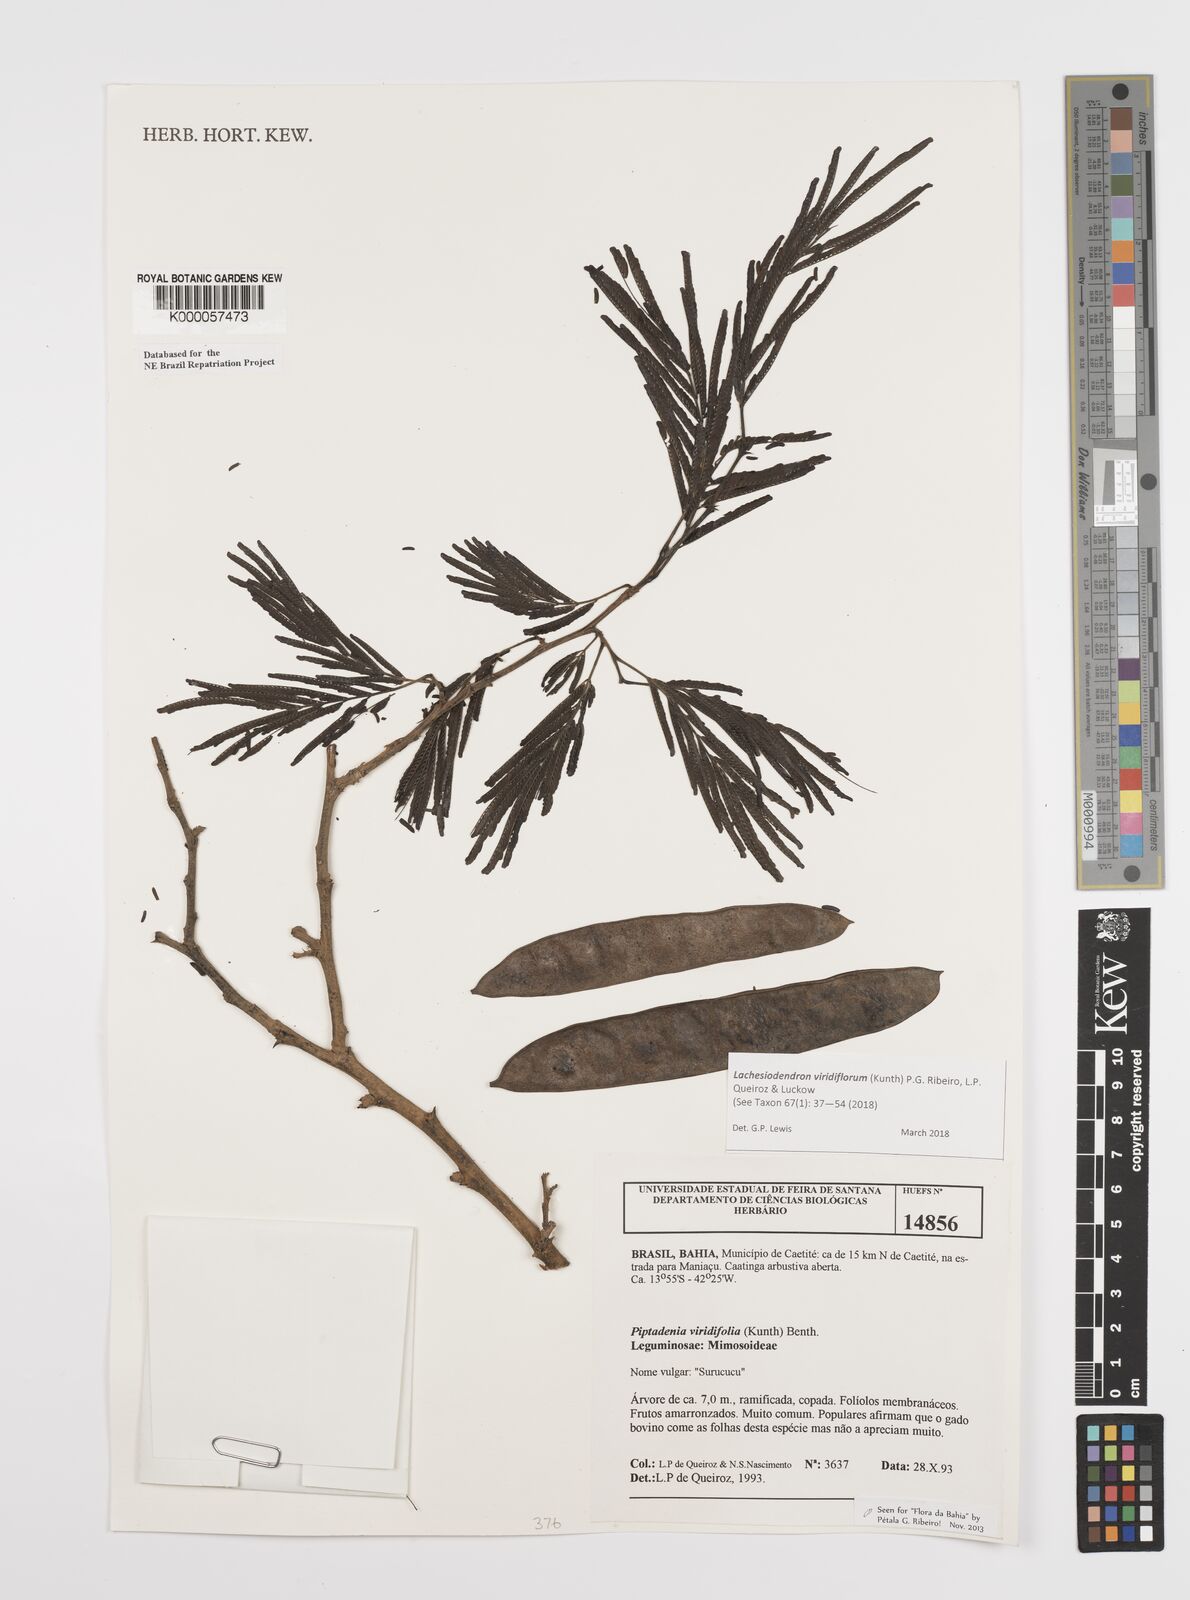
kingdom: Plantae
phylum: Tracheophyta
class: Magnoliopsida
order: Fabales
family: Fabaceae
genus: Lachesiodendron
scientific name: Lachesiodendron viridiflorum
